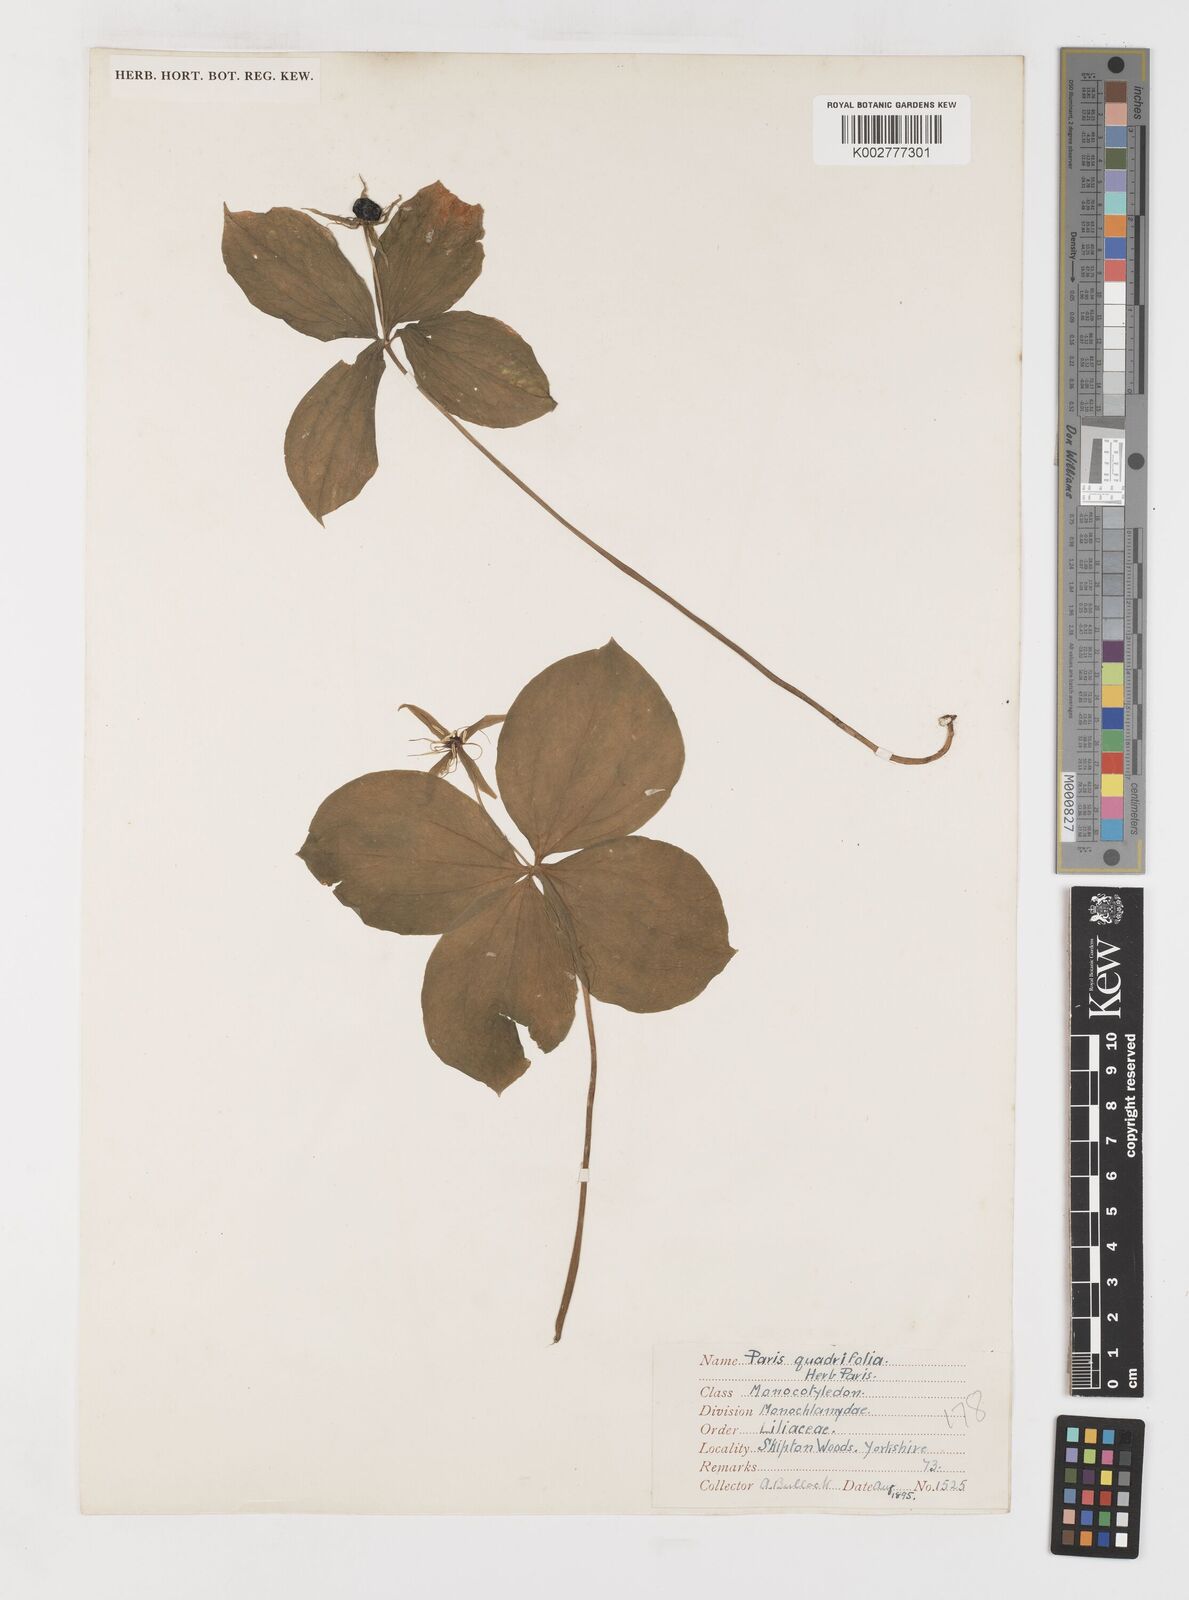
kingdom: Plantae
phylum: Tracheophyta
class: Liliopsida
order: Liliales
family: Melanthiaceae
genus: Paris
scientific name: Paris quadrifolia
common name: Herb-paris
